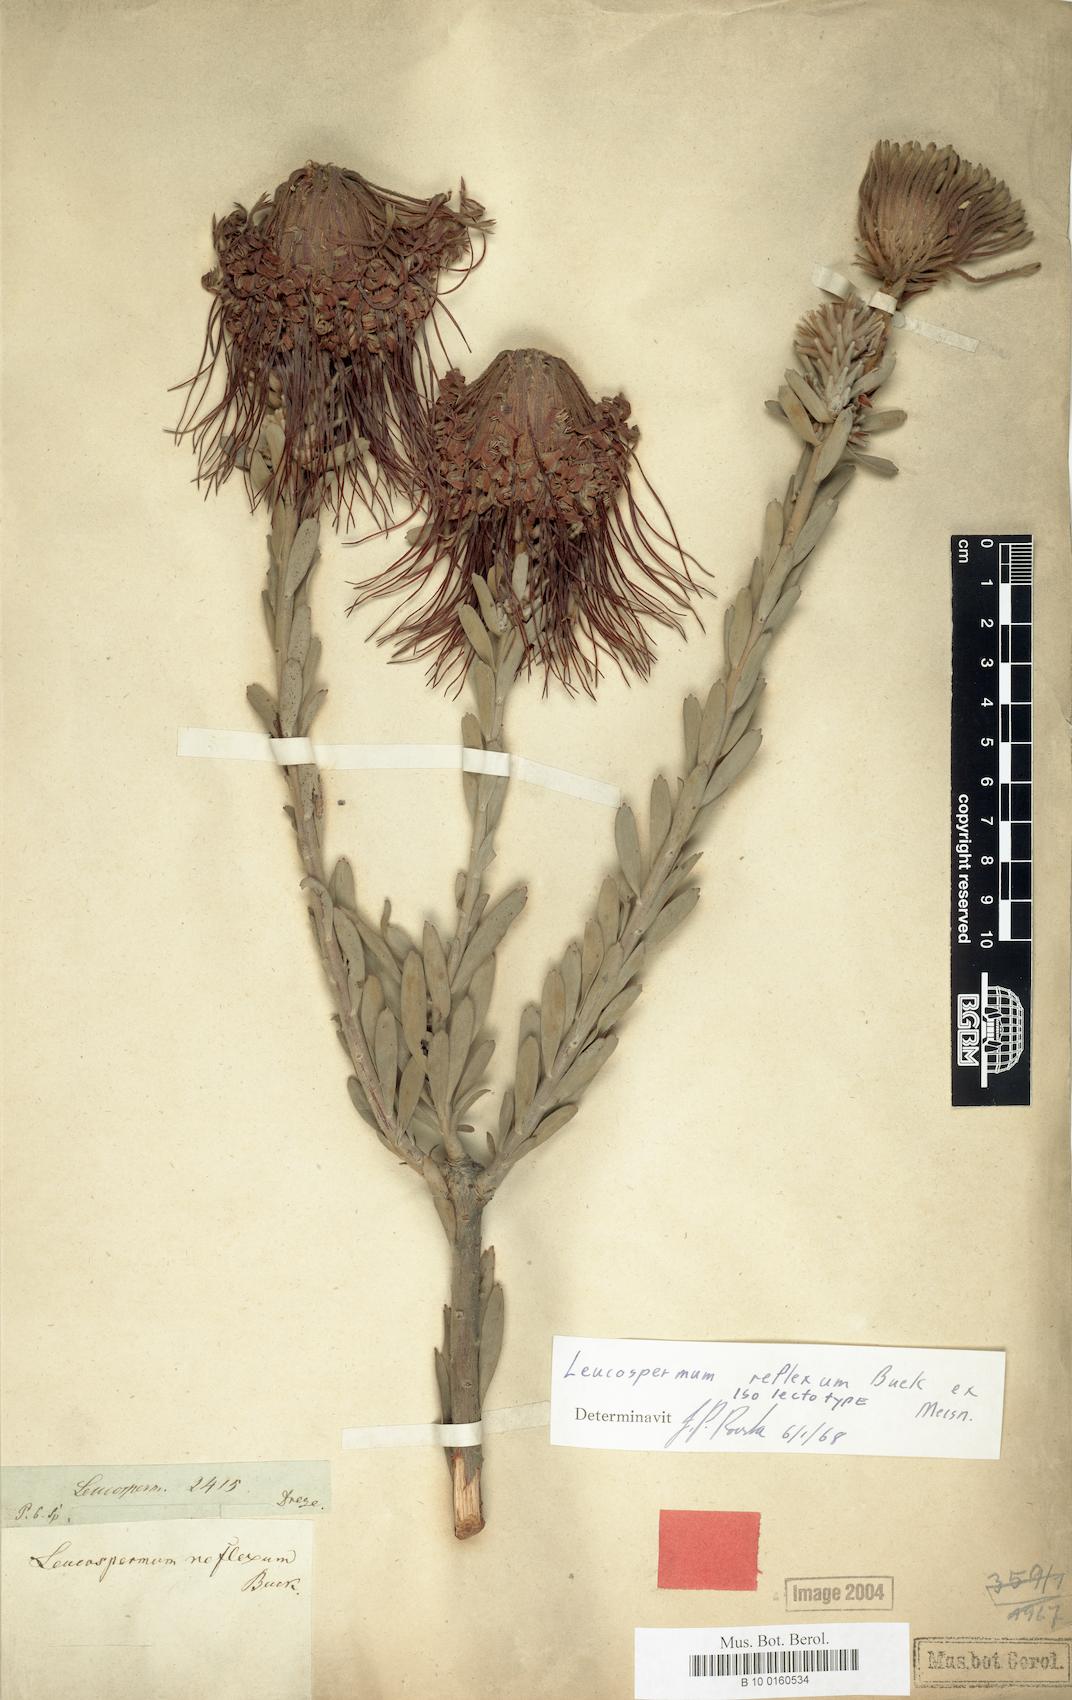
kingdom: Plantae
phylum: Tracheophyta
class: Magnoliopsida
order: Proteales
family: Proteaceae
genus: Leucospermum
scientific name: Leucospermum reflexum
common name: Rocket pincushion
